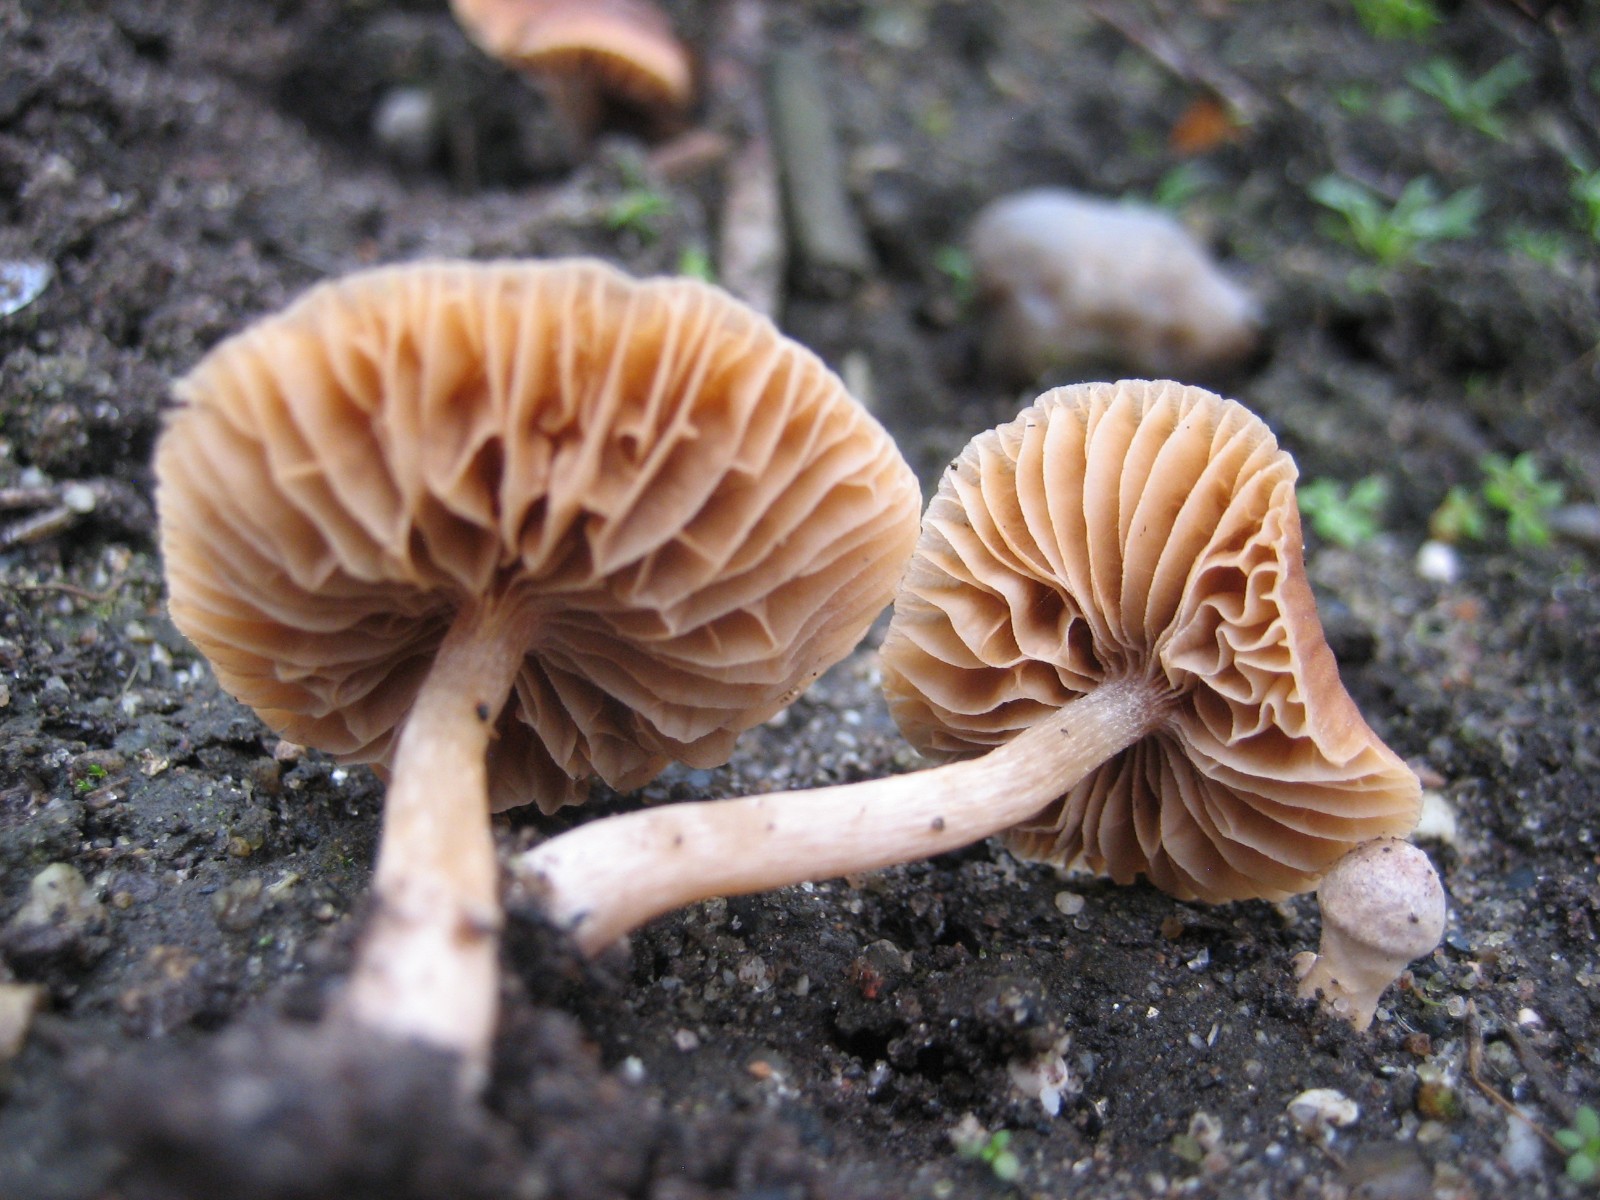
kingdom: Fungi
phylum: Basidiomycota
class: Agaricomycetes
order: Agaricales
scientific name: Agaricales
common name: champignonordenen
